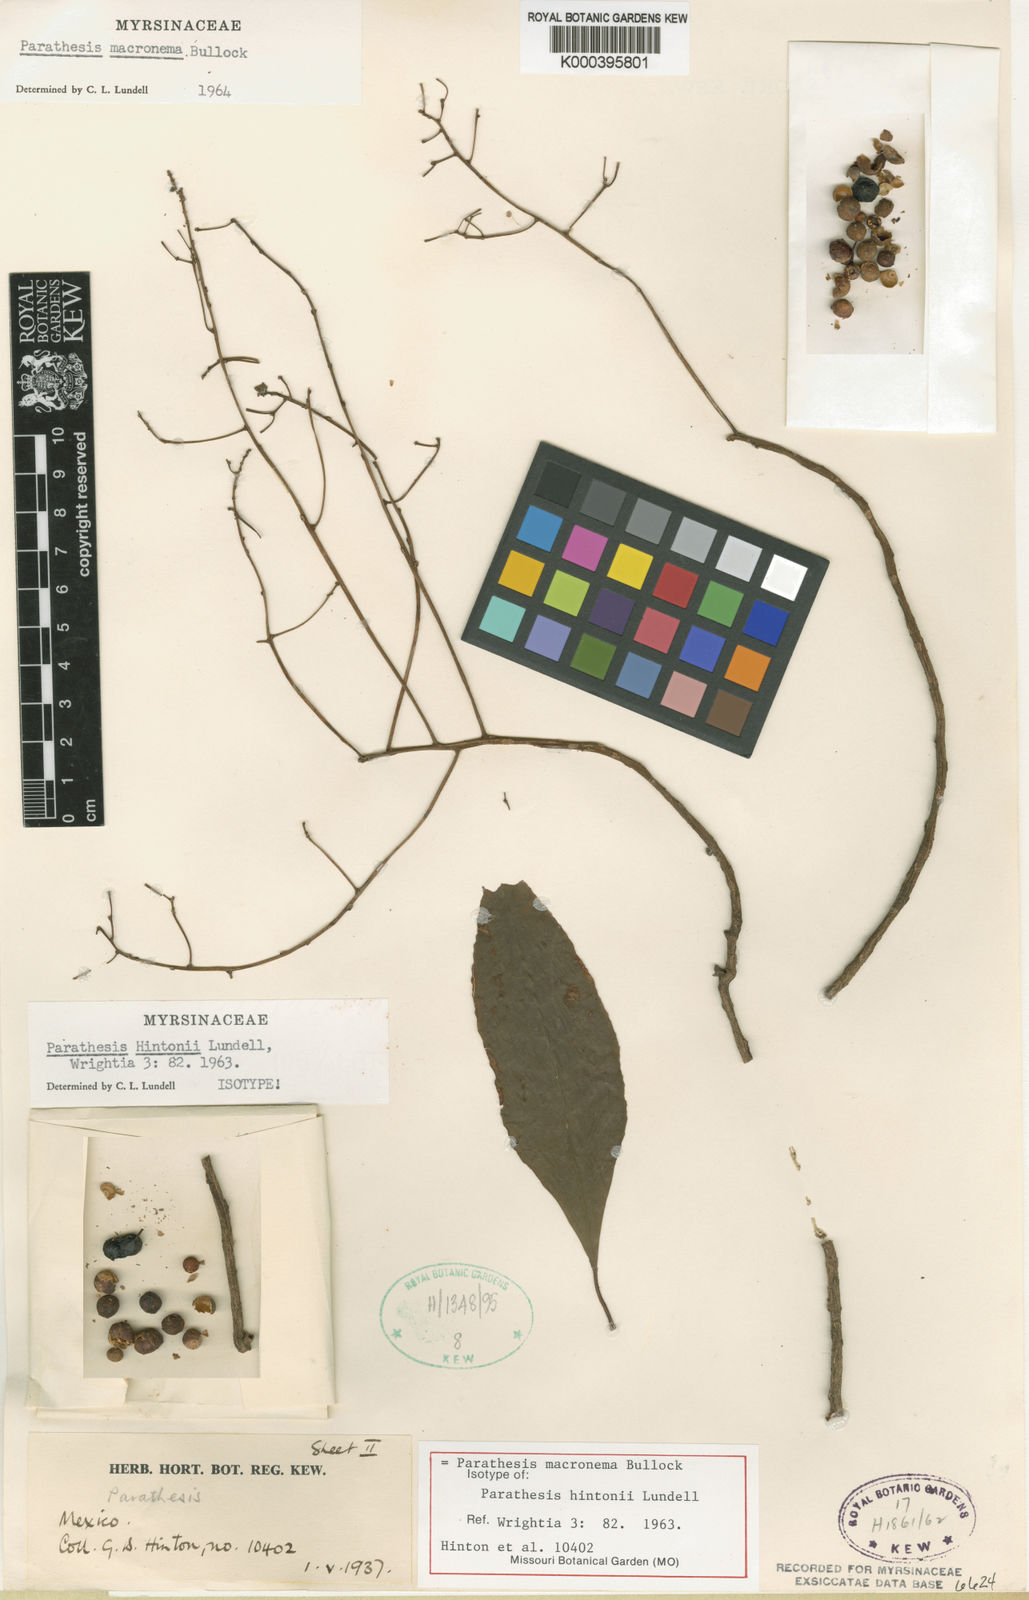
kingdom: Plantae
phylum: Tracheophyta
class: Magnoliopsida
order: Ericales
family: Primulaceae
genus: Parathesis
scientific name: Parathesis macronema
